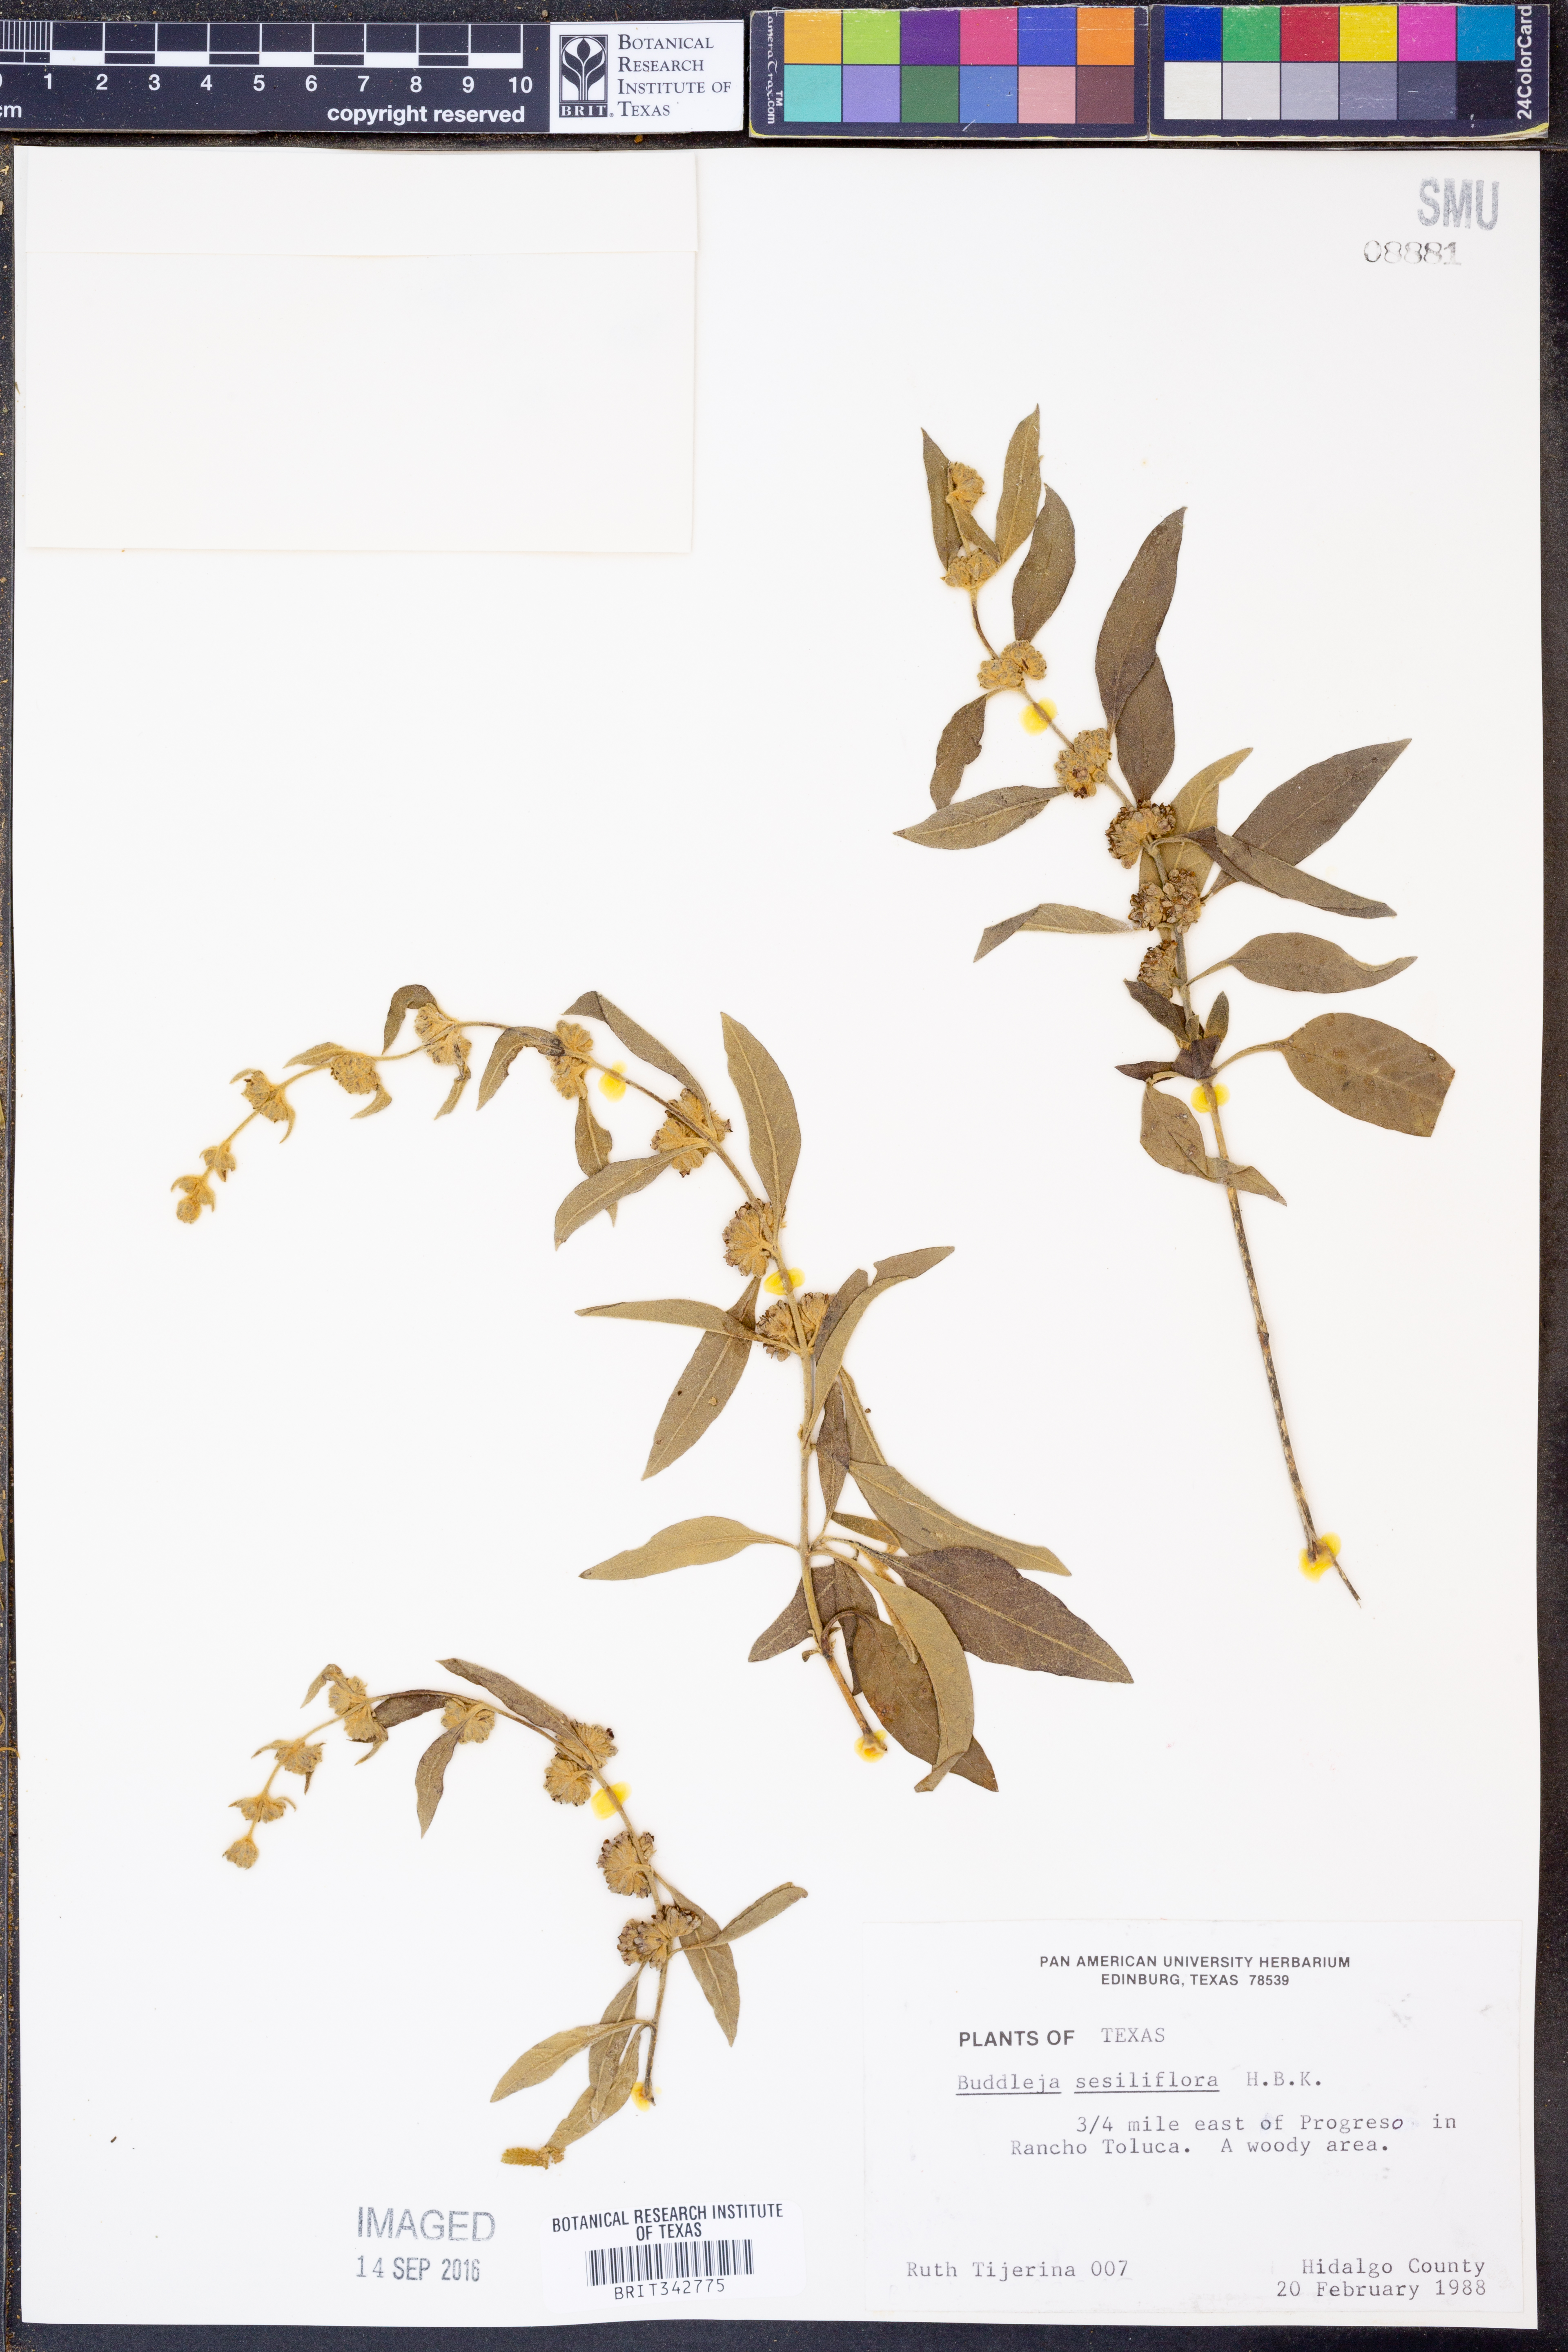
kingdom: Plantae
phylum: Tracheophyta
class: Magnoliopsida
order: Lamiales
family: Scrophulariaceae
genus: Buddleja
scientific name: Buddleja sessiliflora
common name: Rio grande butterfly-bush
